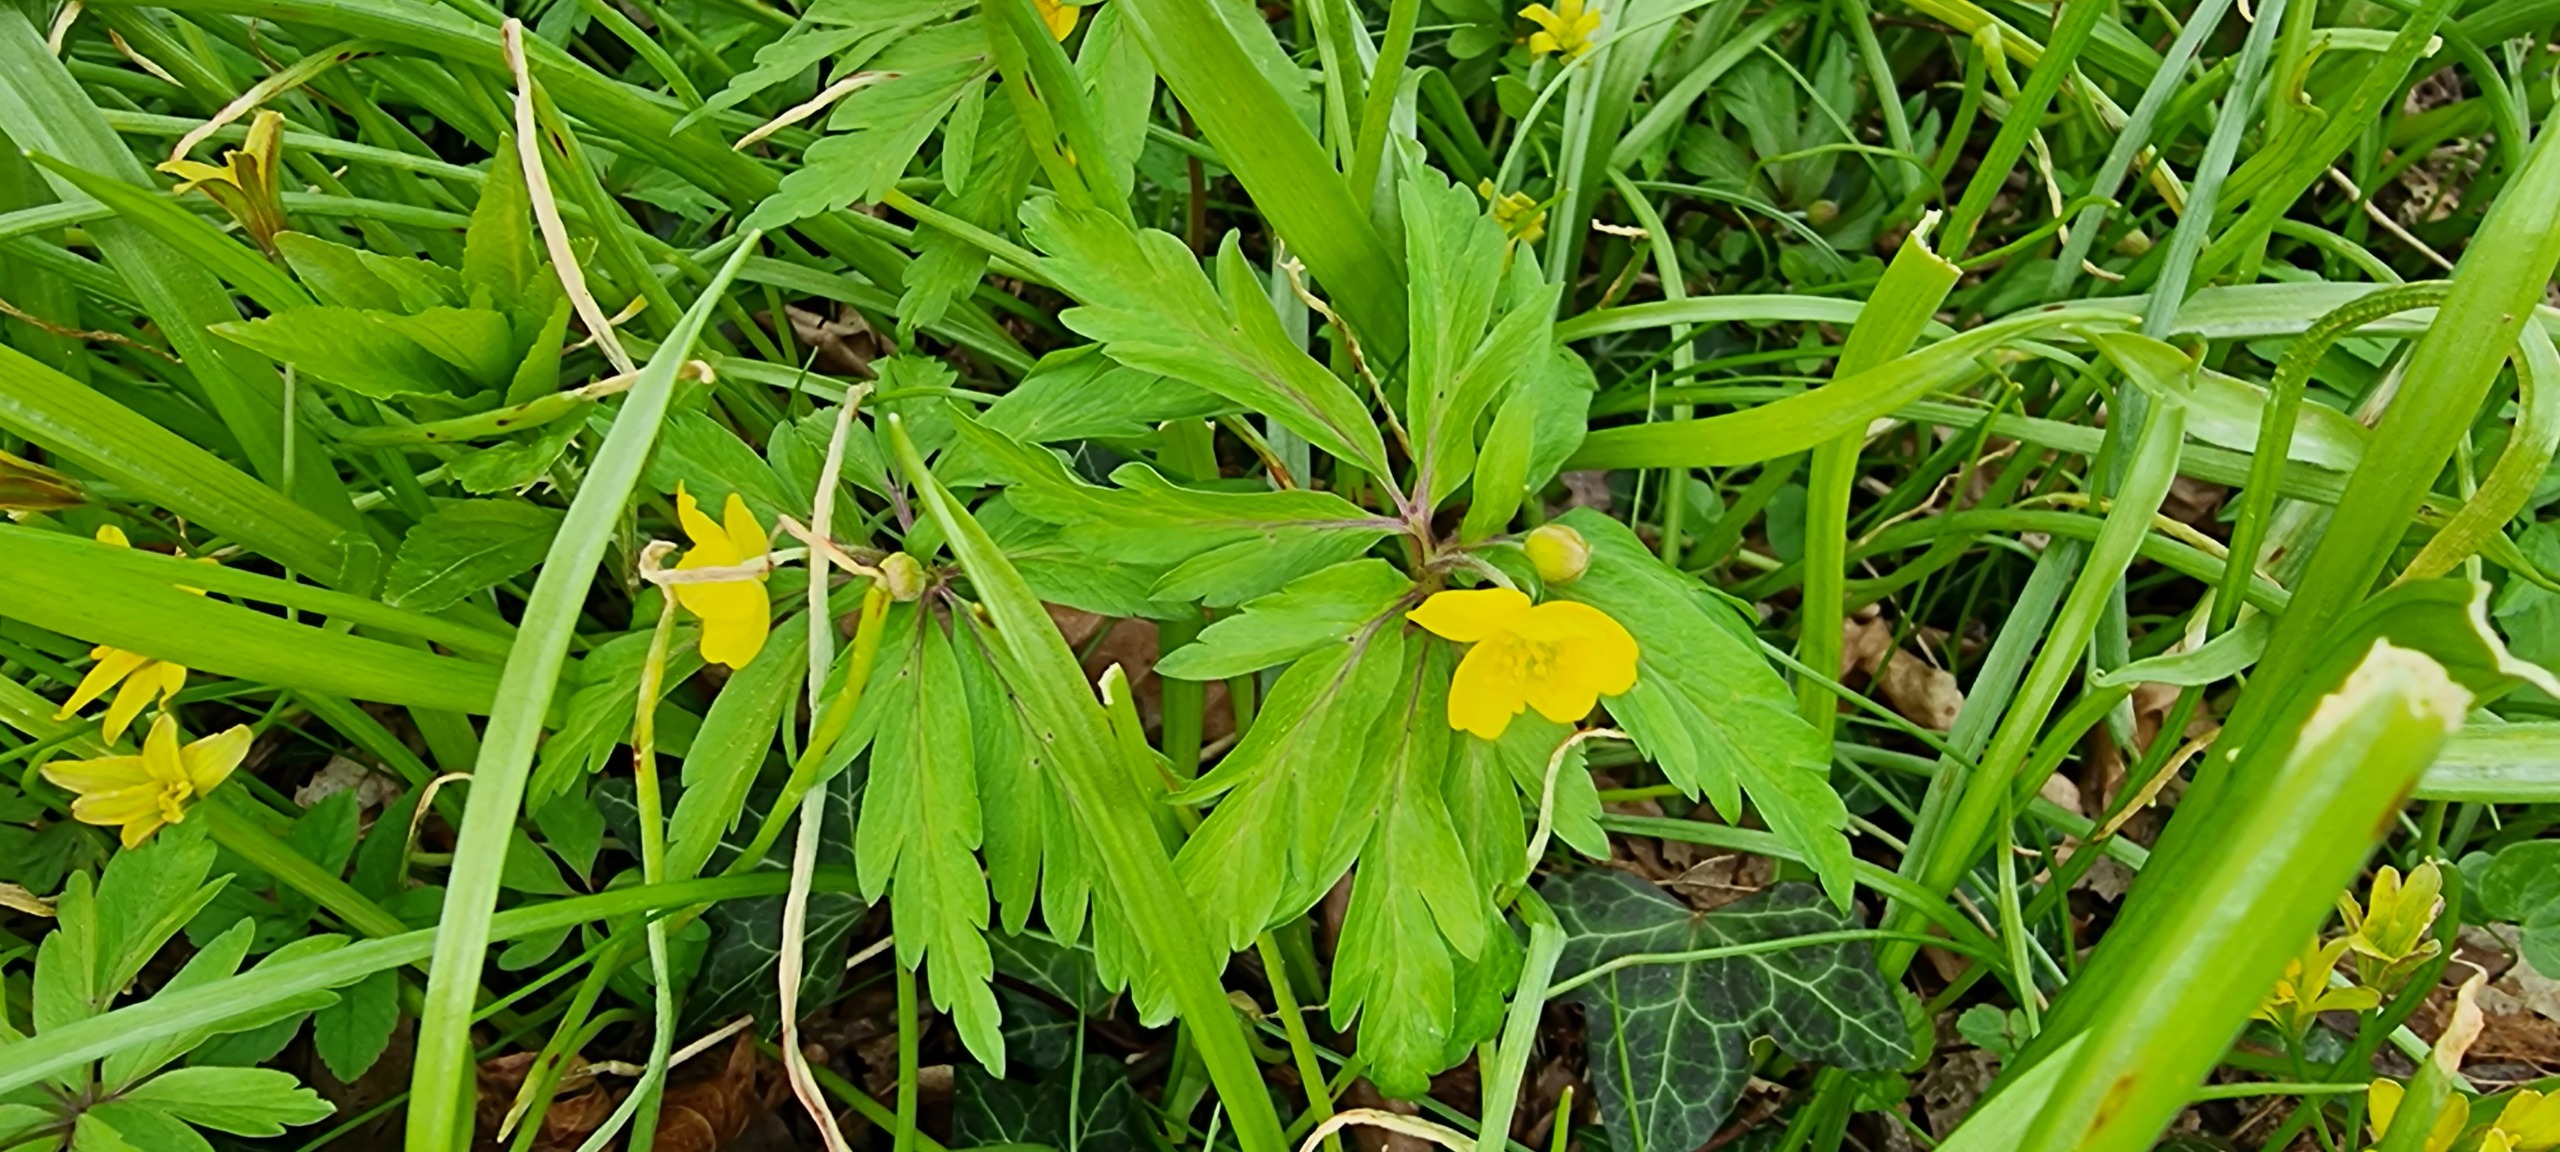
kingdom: Plantae
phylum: Tracheophyta
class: Magnoliopsida
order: Ranunculales
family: Ranunculaceae
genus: Anemone
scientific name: Anemone ranunculoides
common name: Gul anemone
